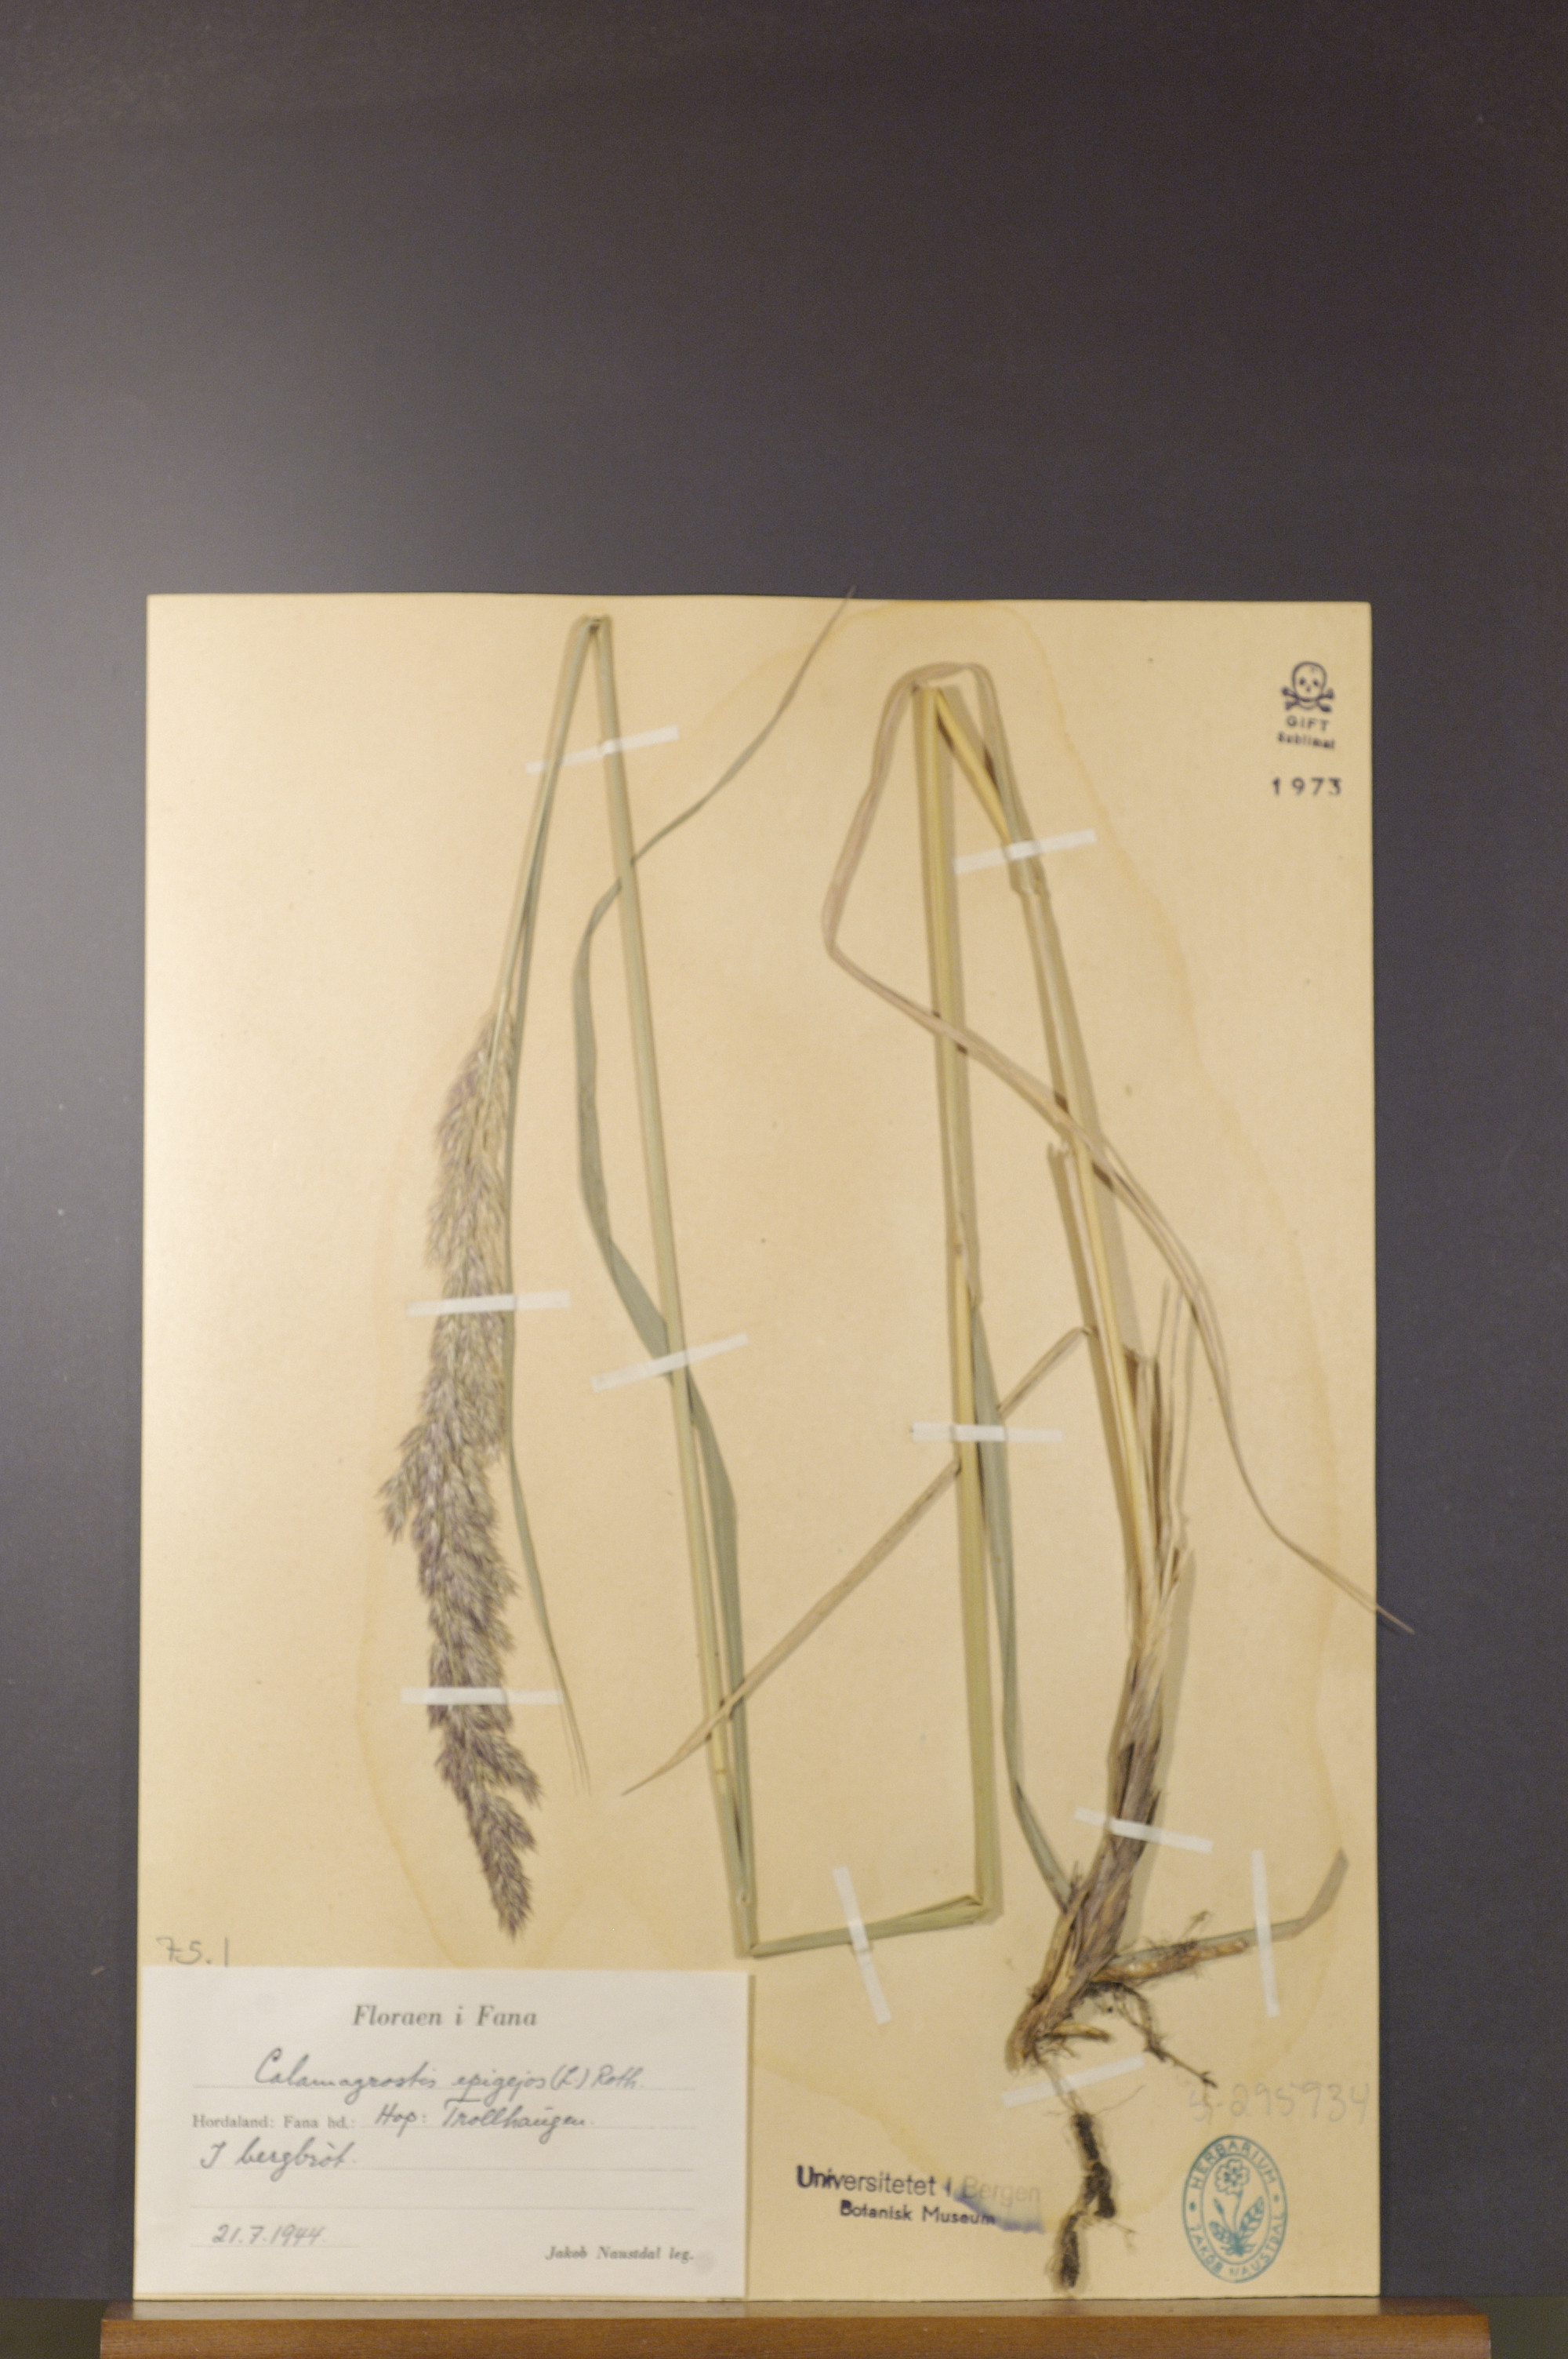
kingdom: Plantae
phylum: Tracheophyta
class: Liliopsida
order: Poales
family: Poaceae
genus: Calamagrostis
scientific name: Calamagrostis epigejos
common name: Wood small-reed
